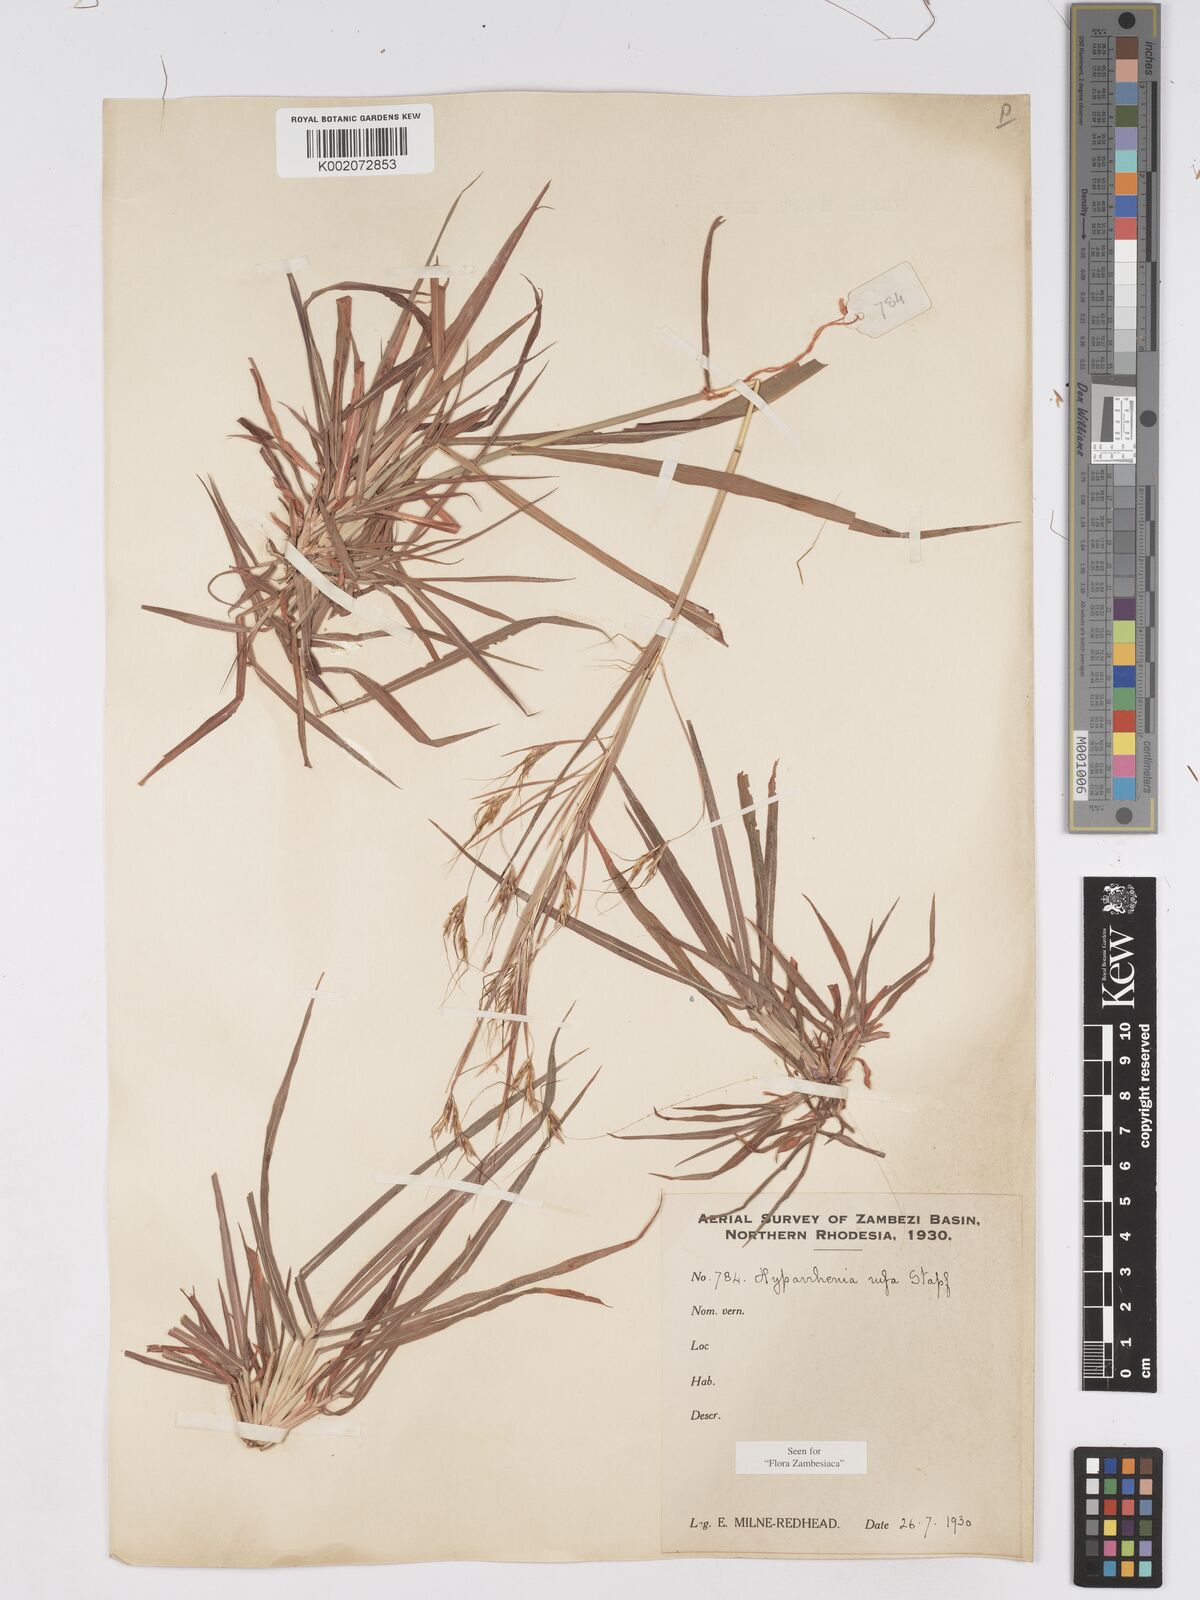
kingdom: Plantae
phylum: Tracheophyta
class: Liliopsida
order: Poales
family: Poaceae
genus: Hyparrhenia
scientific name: Hyparrhenia rufa
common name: Jaraguagrass
